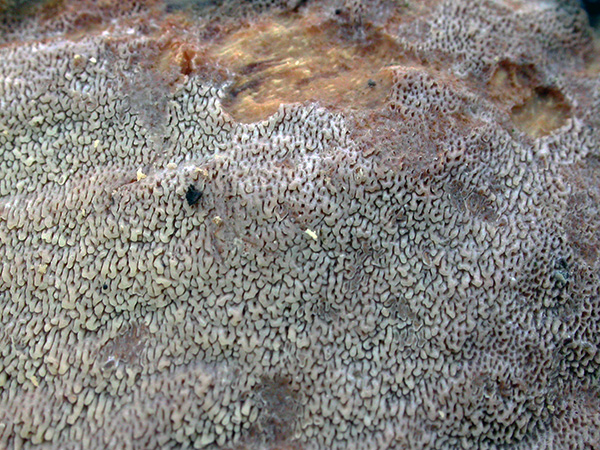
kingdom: Fungi
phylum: Basidiomycota
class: Agaricomycetes
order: Polyporales
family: Meruliaceae
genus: Phlebia
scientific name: Phlebia rufa
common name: ege-åresvamp
